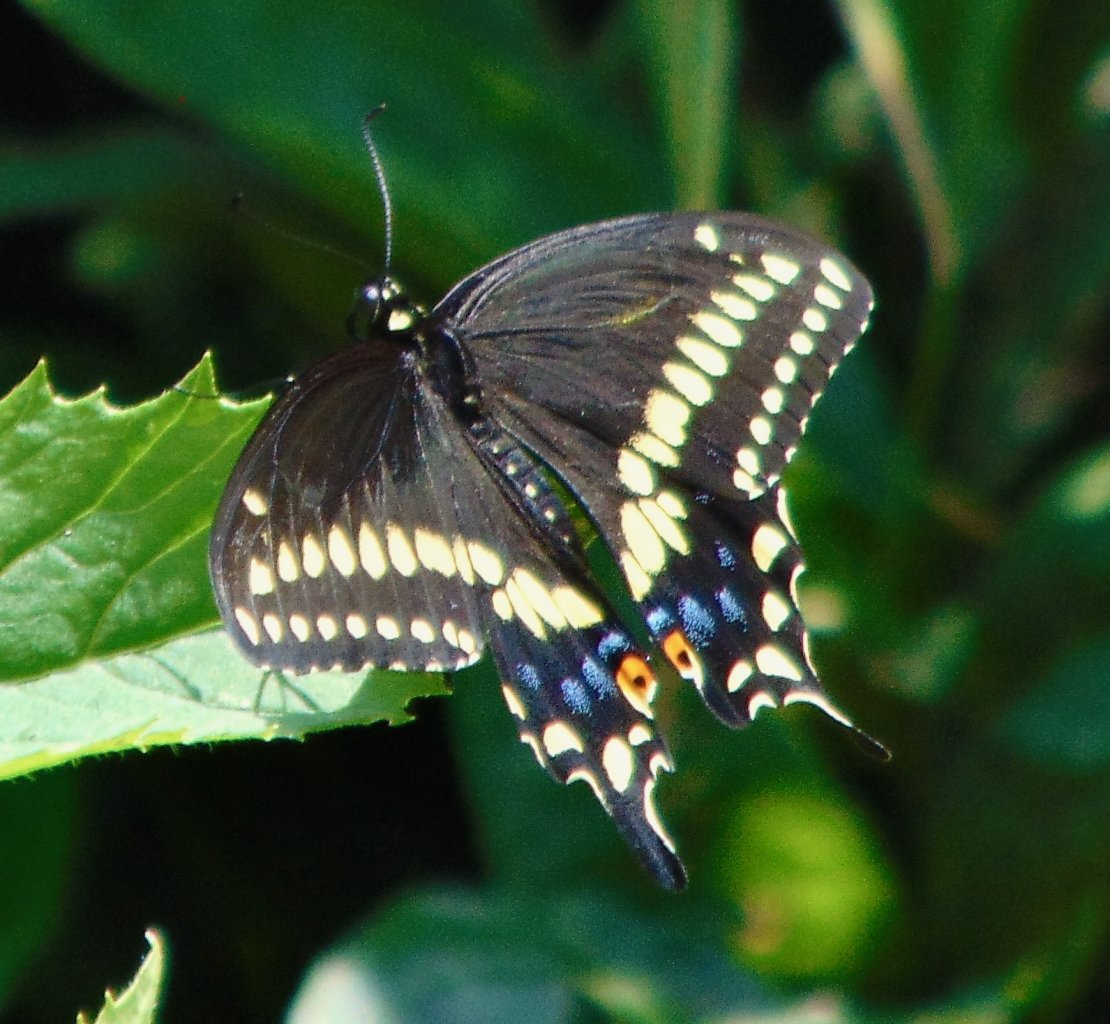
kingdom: Animalia
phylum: Arthropoda
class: Insecta
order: Lepidoptera
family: Papilionidae
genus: Papilio
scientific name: Papilio polyxenes
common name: Black Swallowtail
